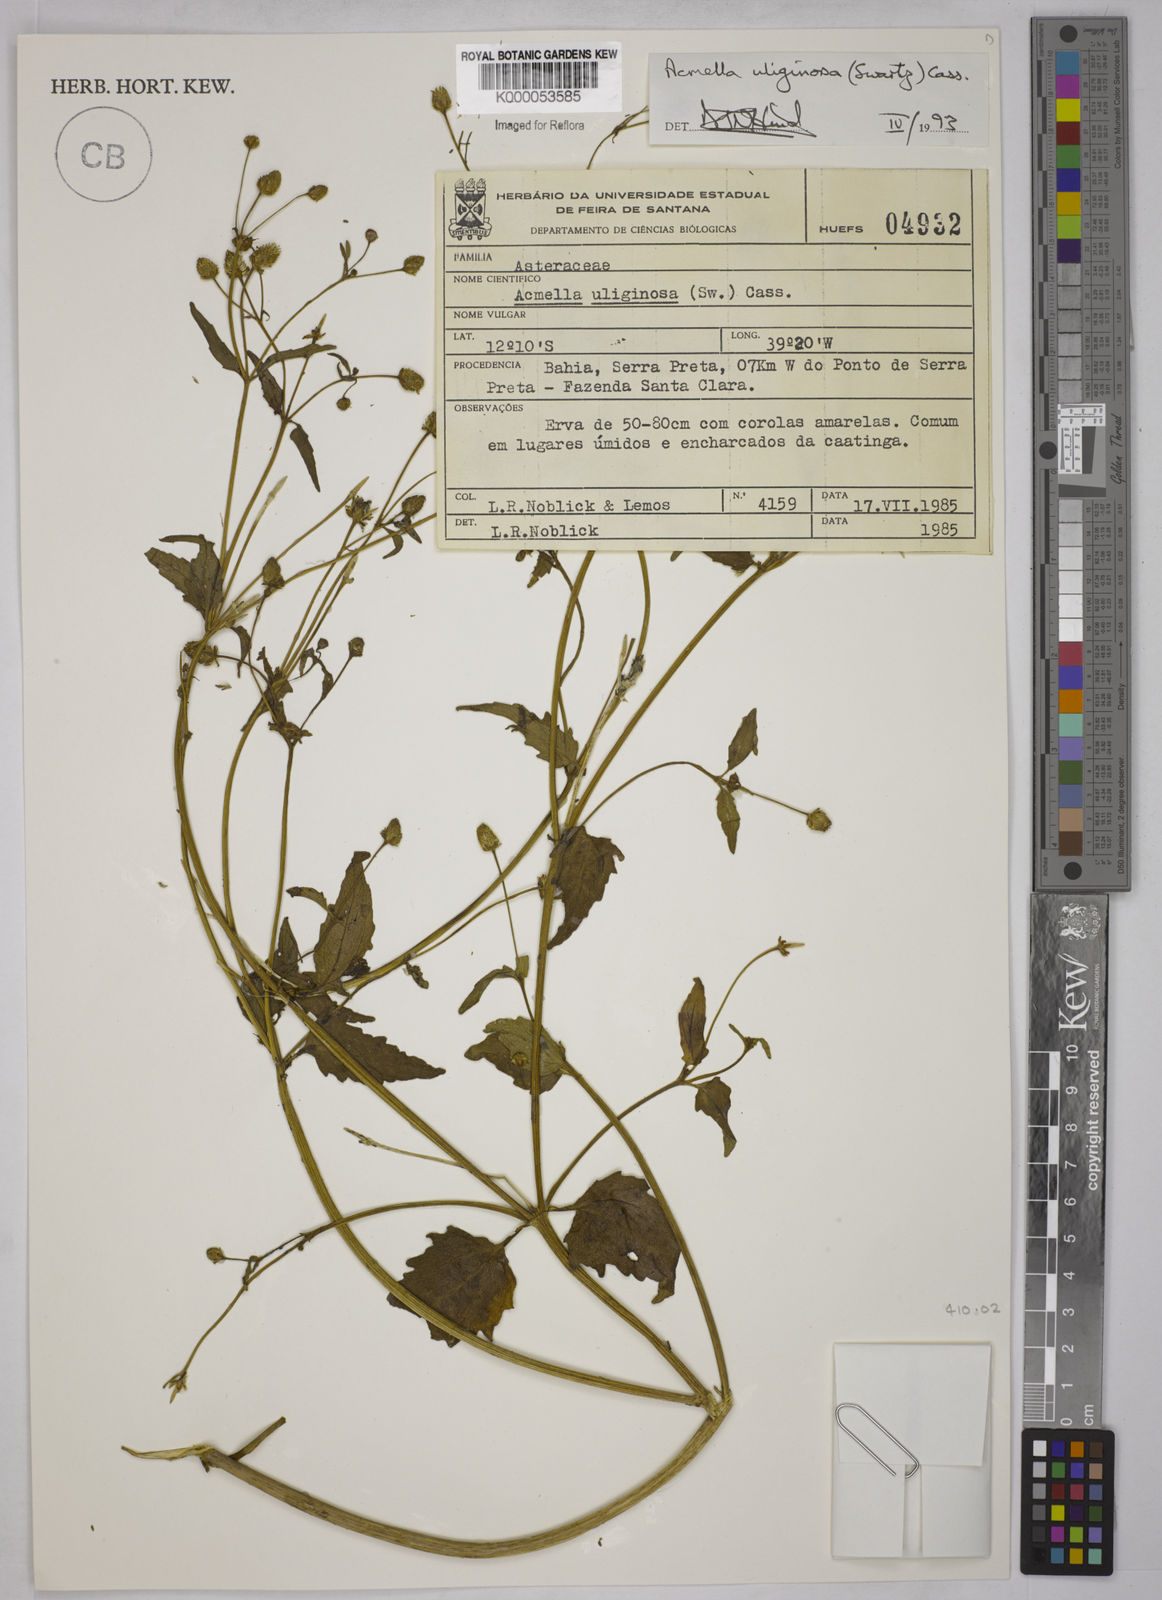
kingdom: Plantae
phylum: Tracheophyta
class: Magnoliopsida
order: Asterales
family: Asteraceae
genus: Acmella
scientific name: Acmella uliginosa
